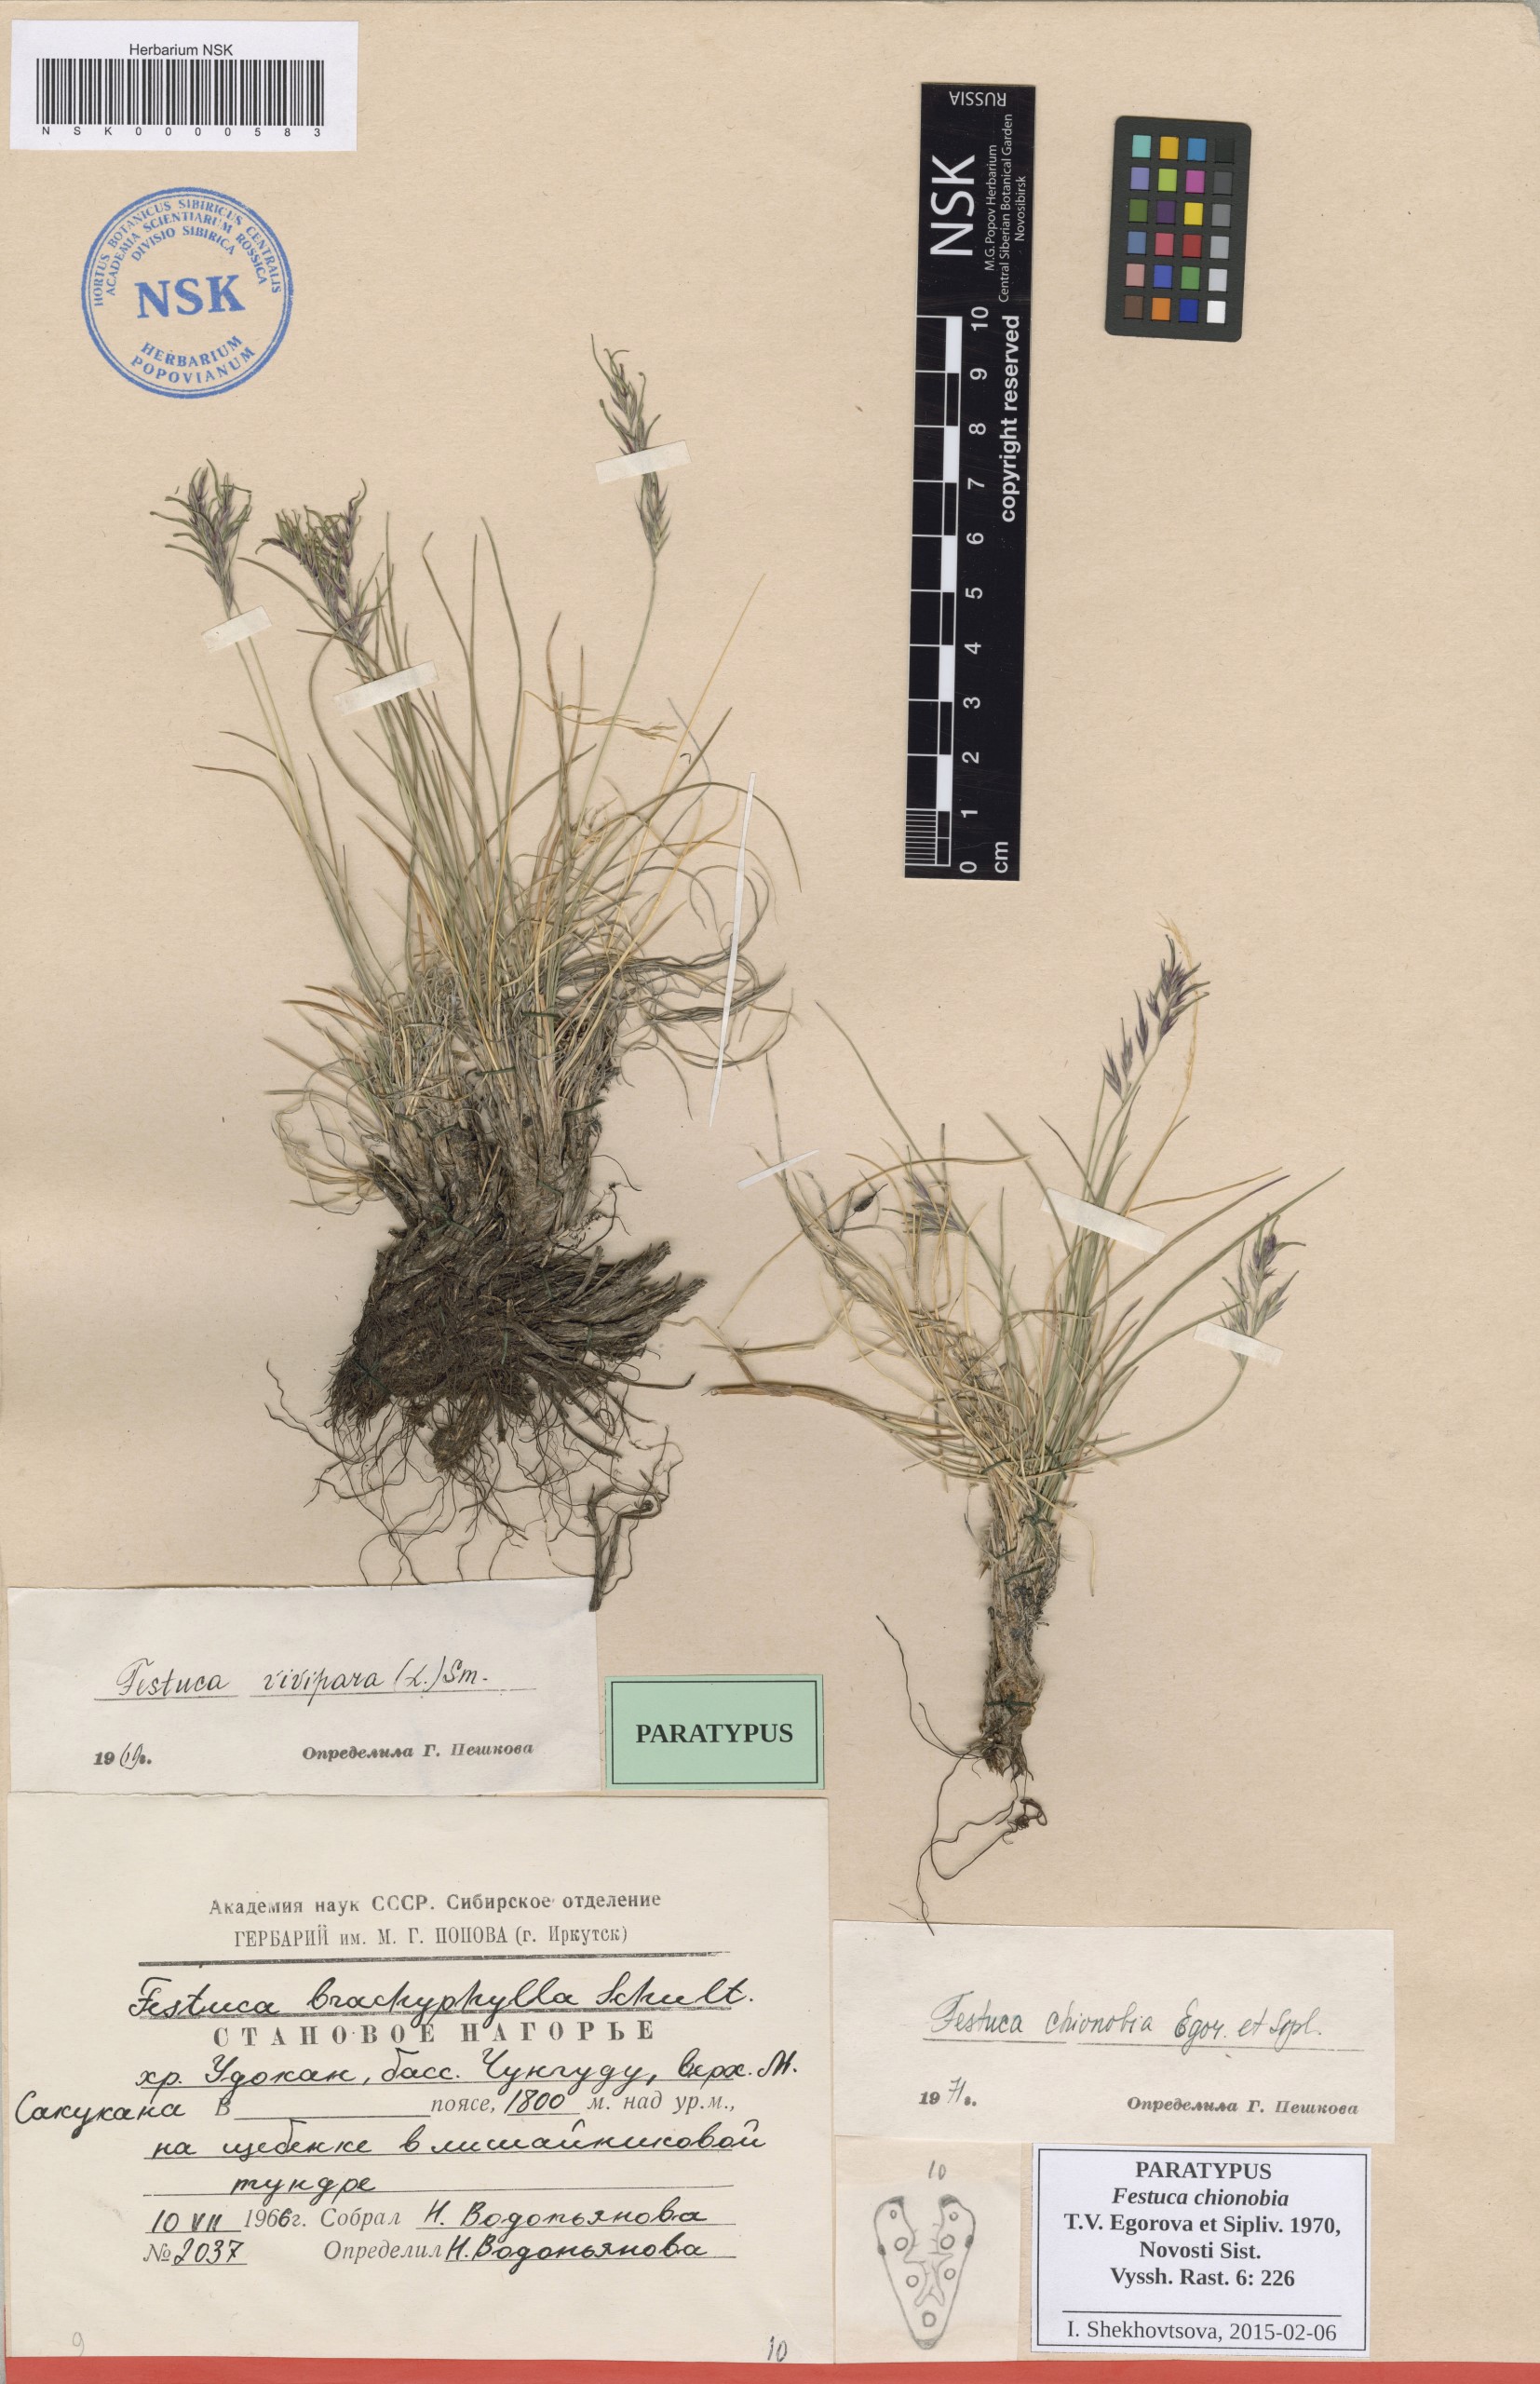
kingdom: Plantae
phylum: Tracheophyta
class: Liliopsida
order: Poales
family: Poaceae
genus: Festuca
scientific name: Festuca auriculata
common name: Eared fescue
